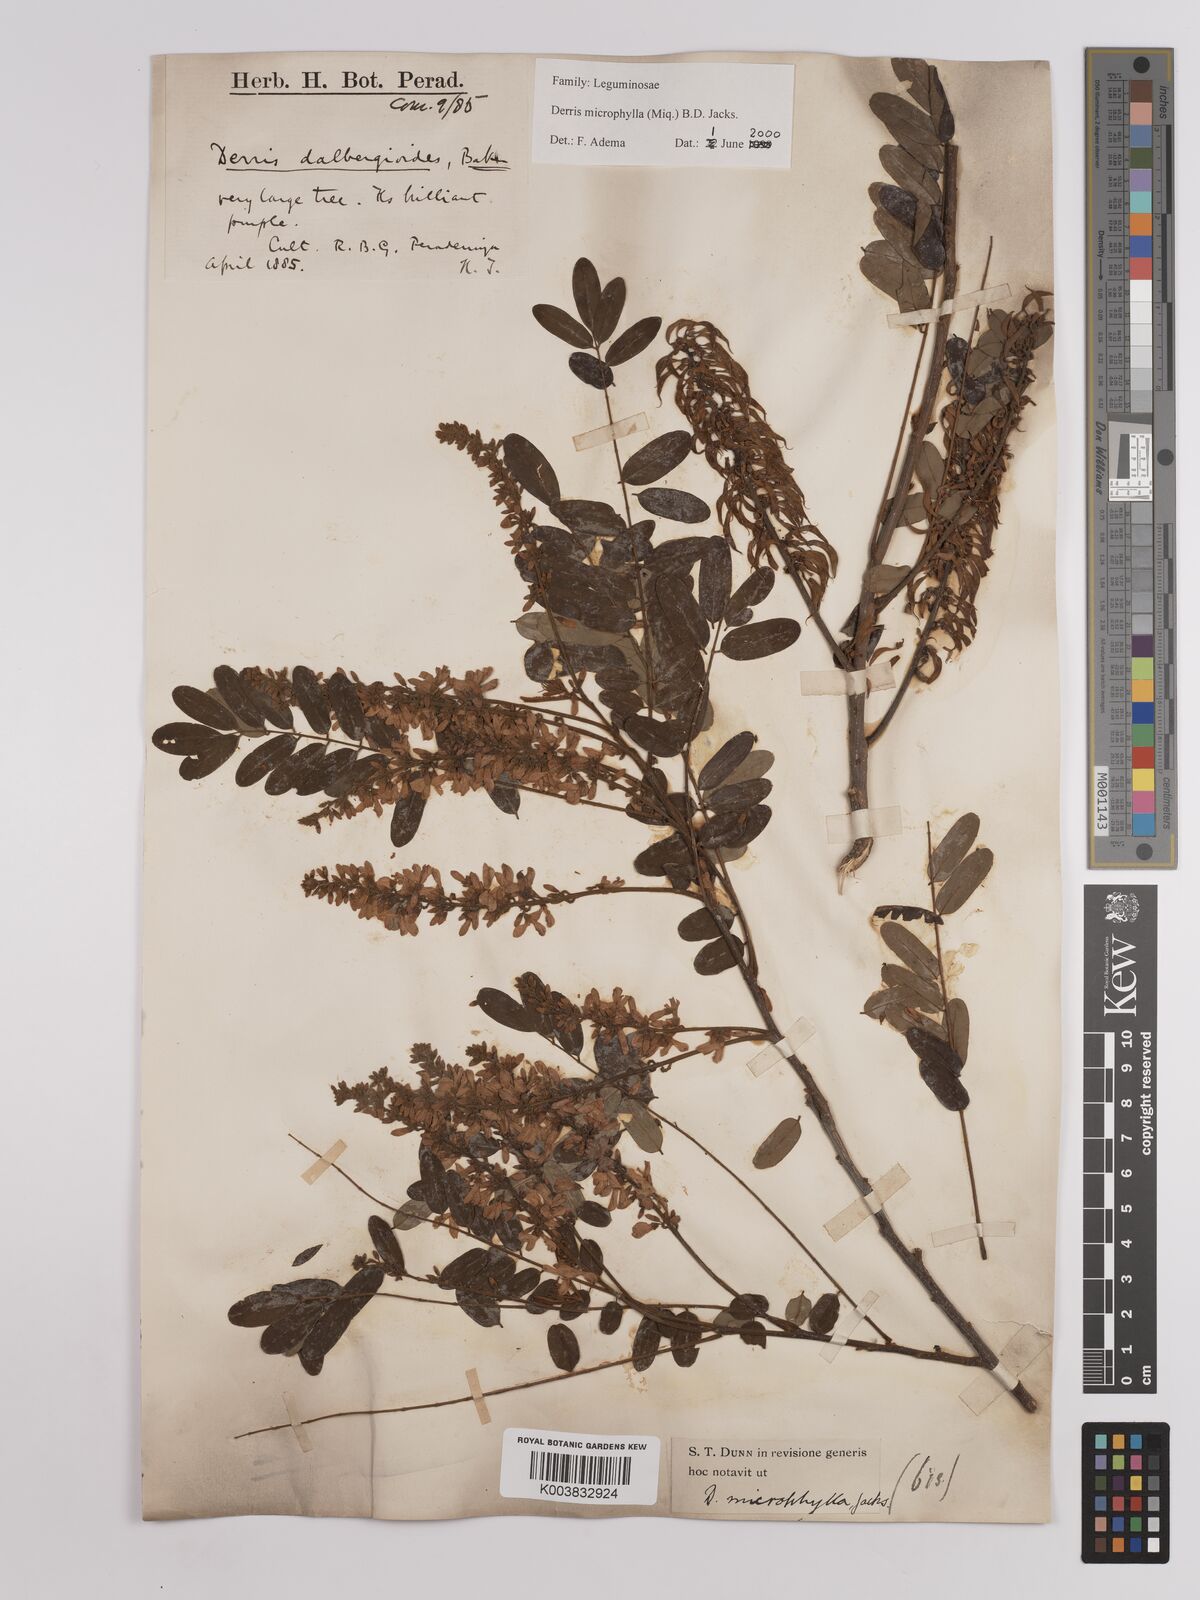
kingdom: Plantae
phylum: Tracheophyta
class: Magnoliopsida
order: Fabales
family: Fabaceae
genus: Brachypterum
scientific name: Brachypterum microphyllum
